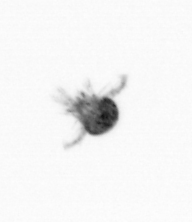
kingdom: Animalia
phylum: Arthropoda
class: Copepoda
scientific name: Copepoda
